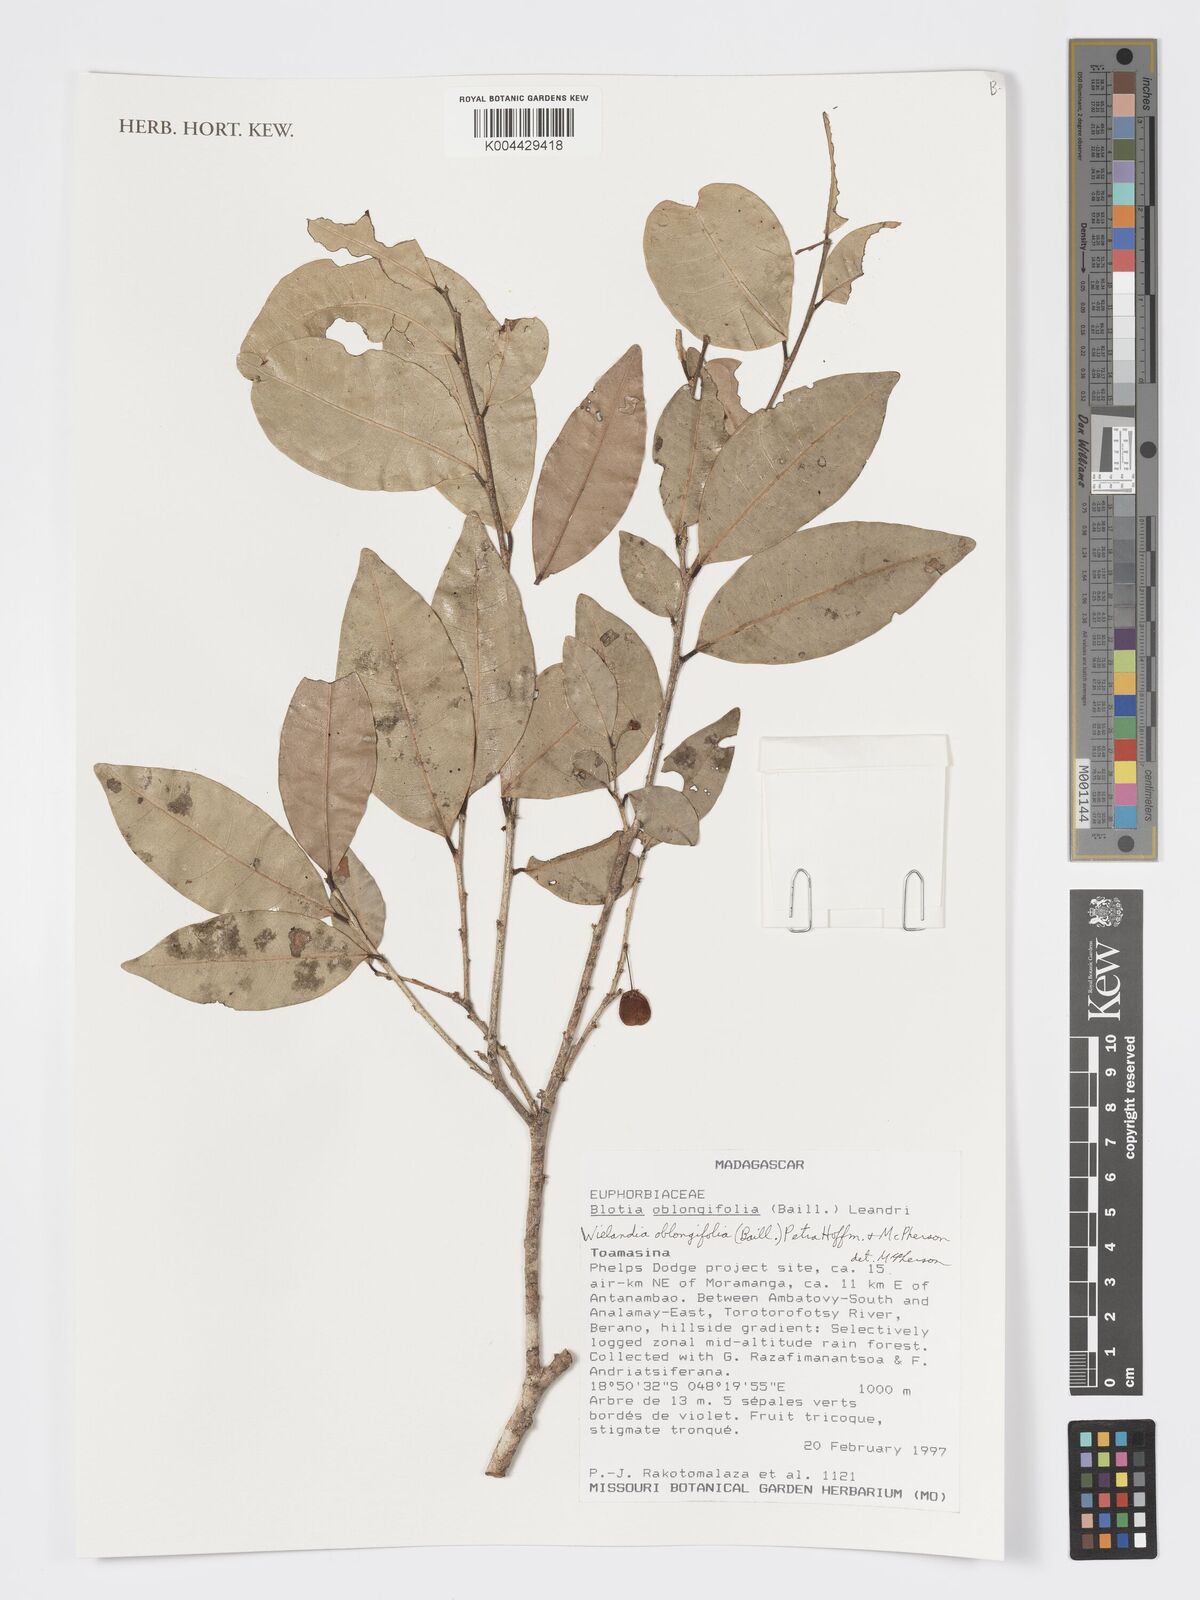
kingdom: Plantae
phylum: Tracheophyta
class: Magnoliopsida
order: Malpighiales
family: Phyllanthaceae
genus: Wielandia
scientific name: Wielandia oblongifolia
